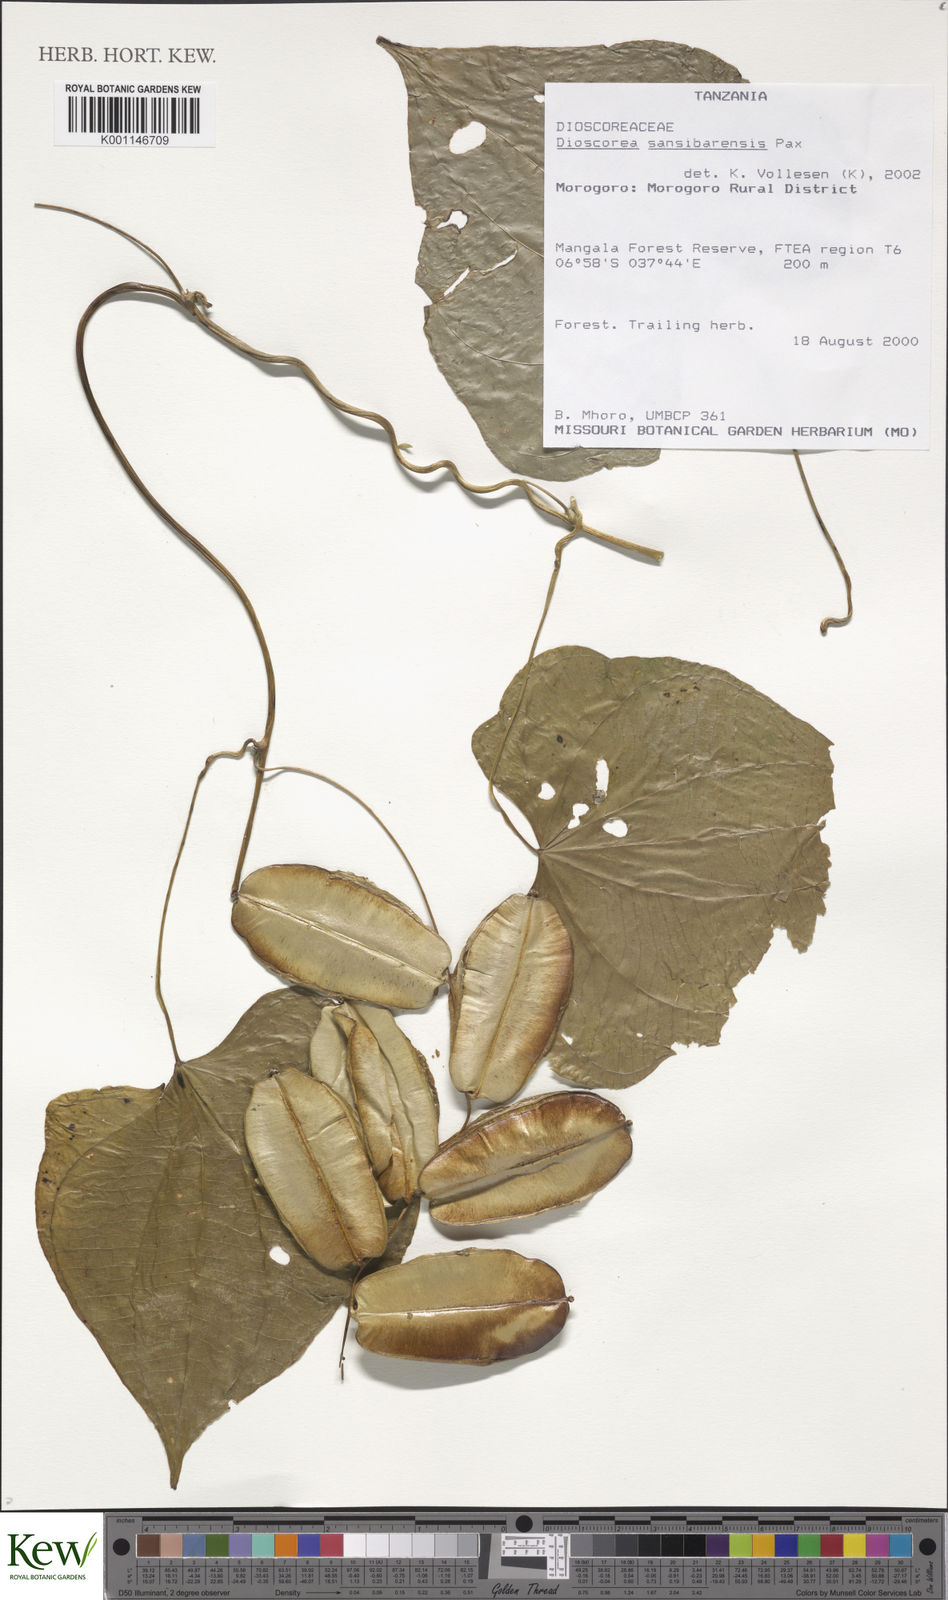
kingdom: Plantae
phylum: Tracheophyta
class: Liliopsida
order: Dioscoreales
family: Dioscoreaceae
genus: Dioscorea
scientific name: Dioscorea sansibarensis
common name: Zanzibar yam
